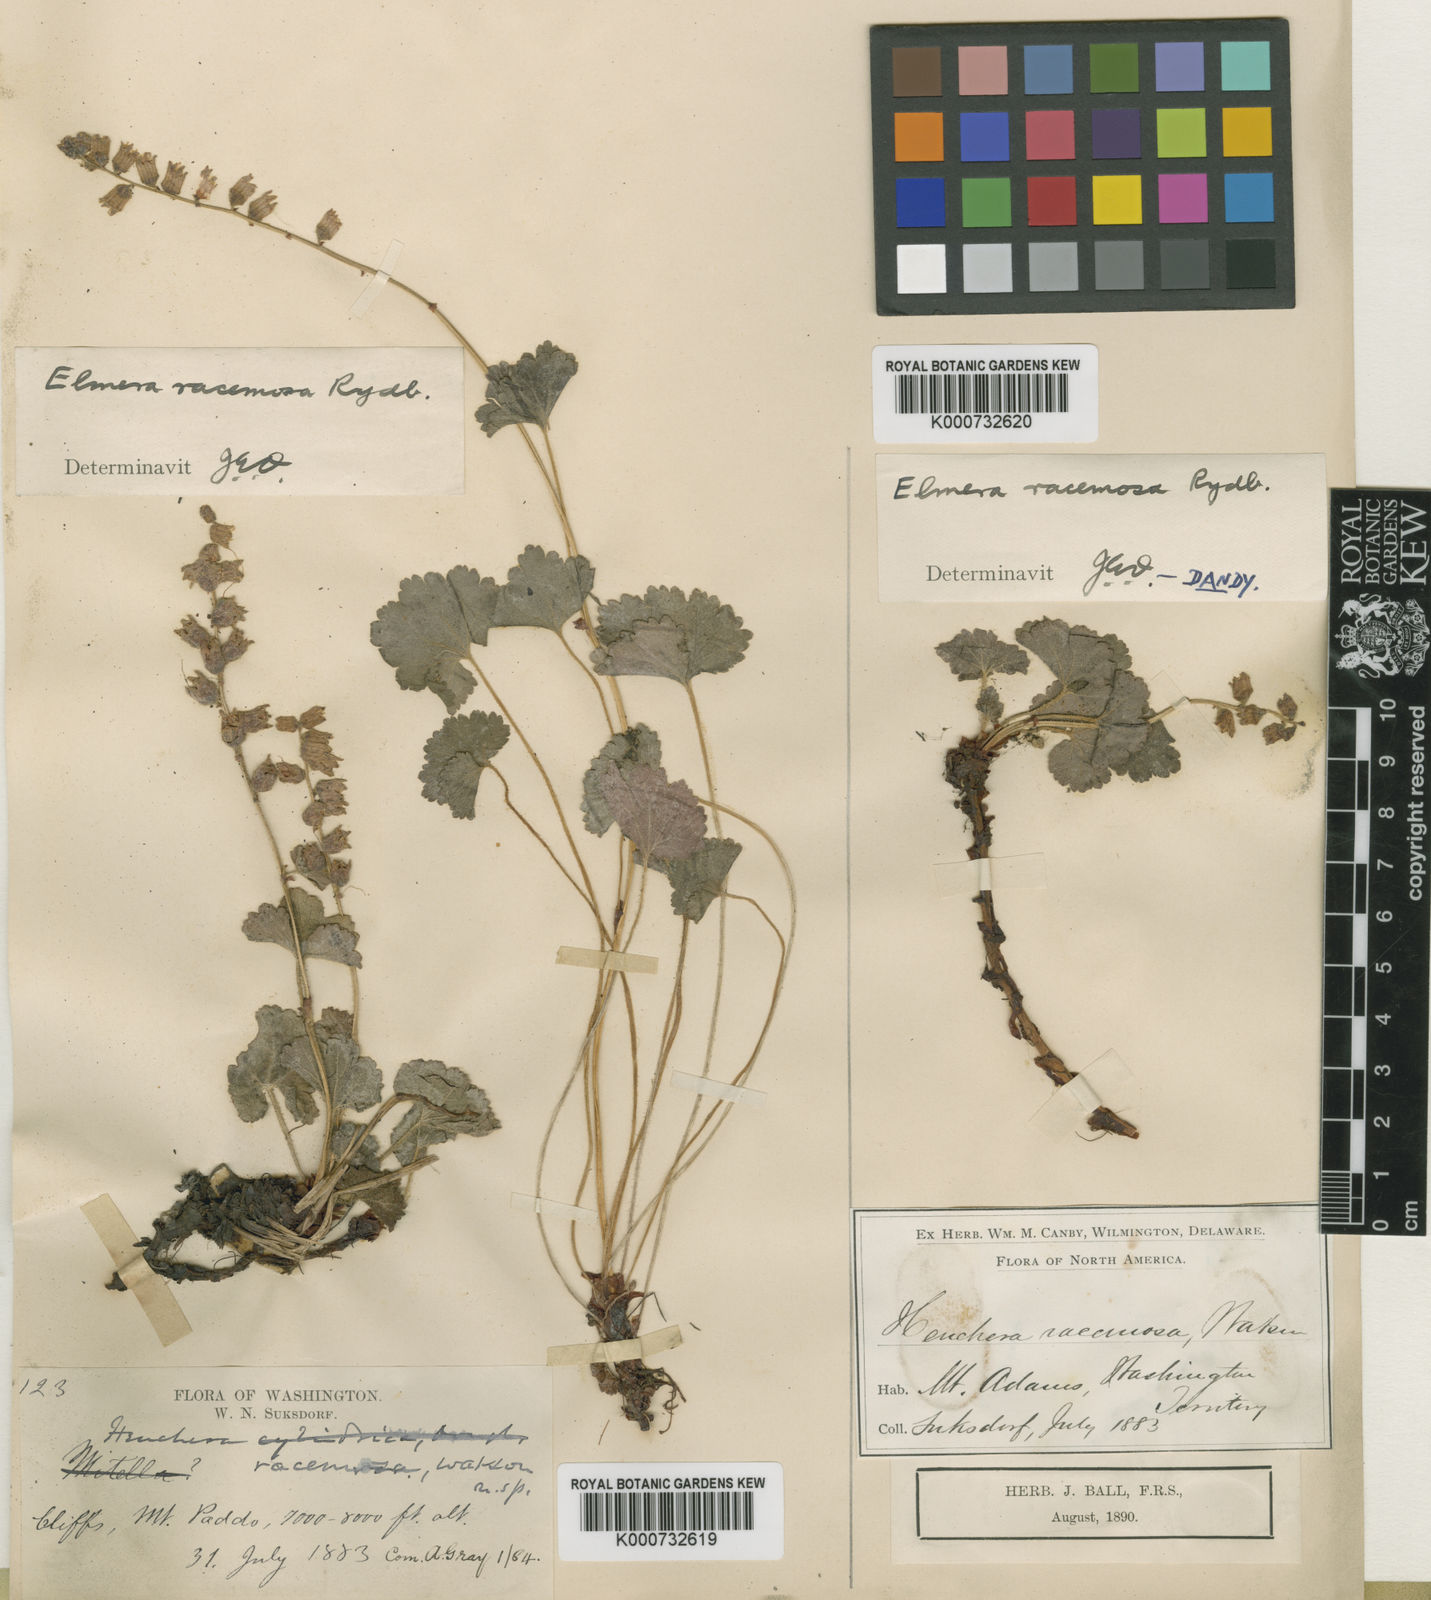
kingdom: Plantae
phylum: Tracheophyta
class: Magnoliopsida
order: Saxifragales
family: Saxifragaceae
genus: Elmera
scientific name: Elmera racemosa
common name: Elmera
